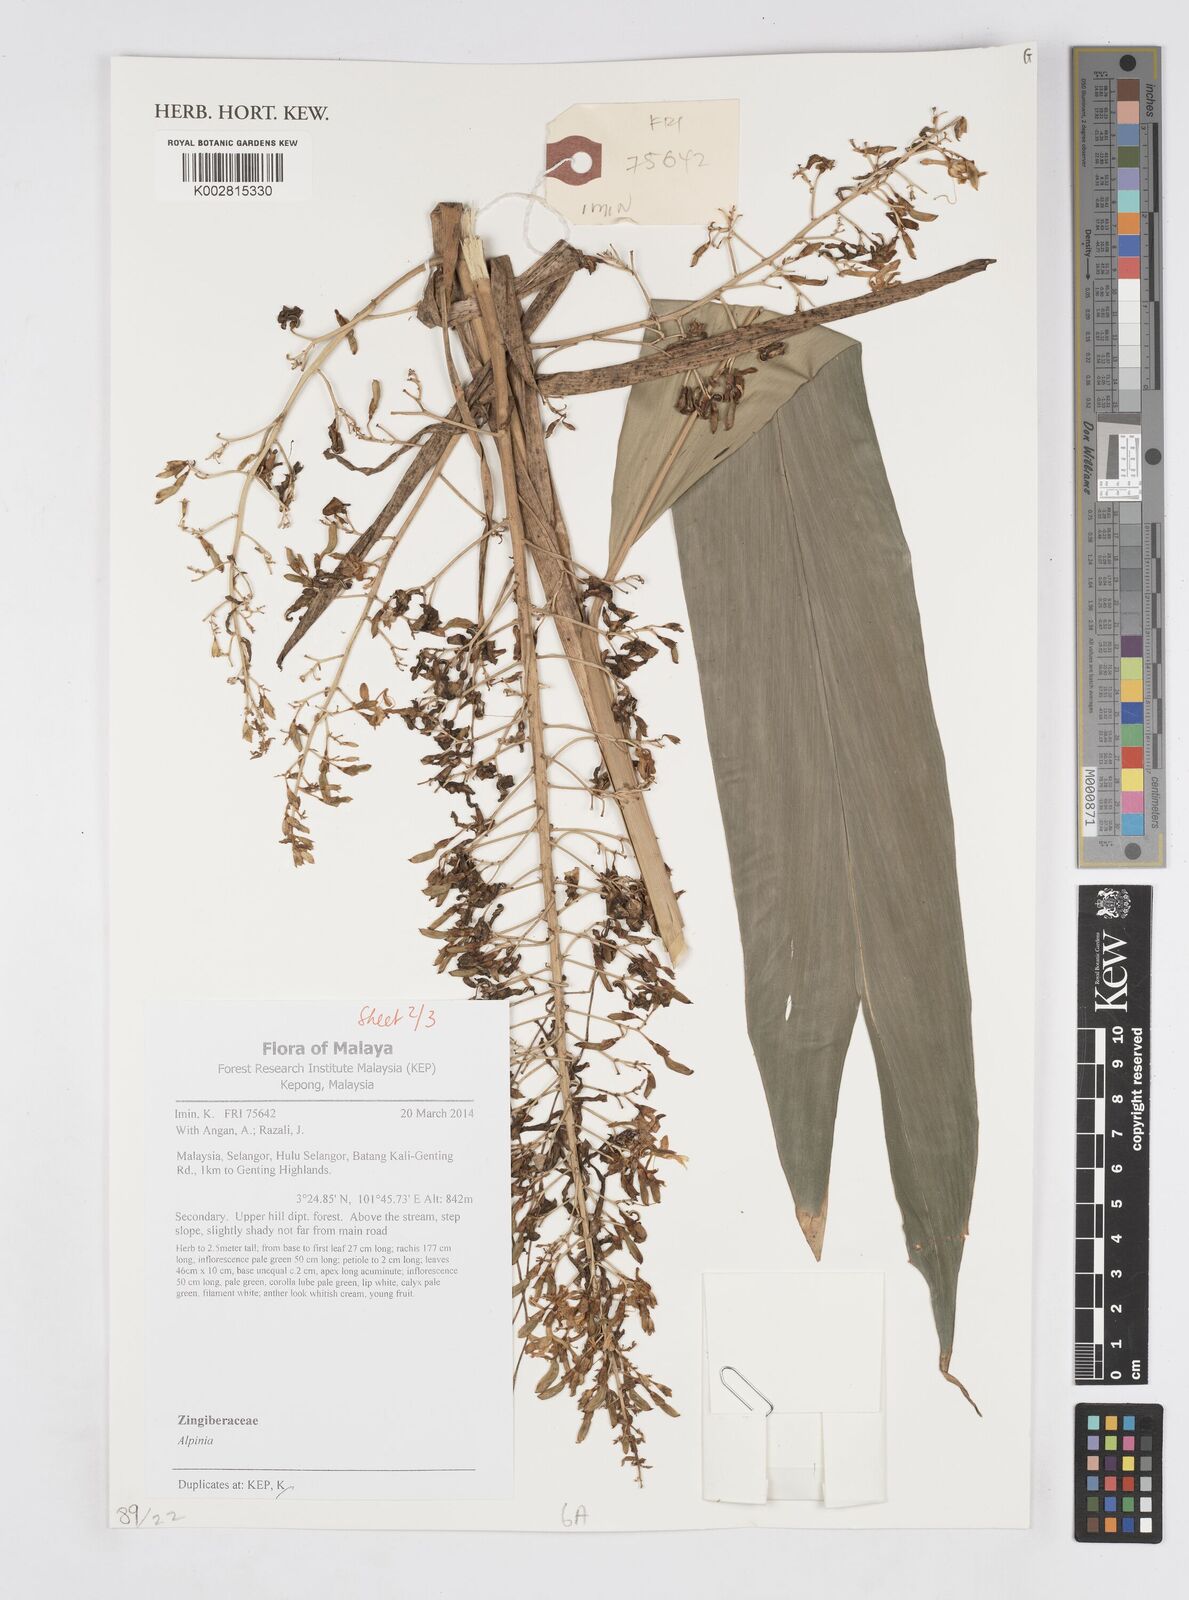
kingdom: Plantae
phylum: Tracheophyta
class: Liliopsida
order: Zingiberales
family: Zingiberaceae
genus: Alpinia
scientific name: Alpinia
